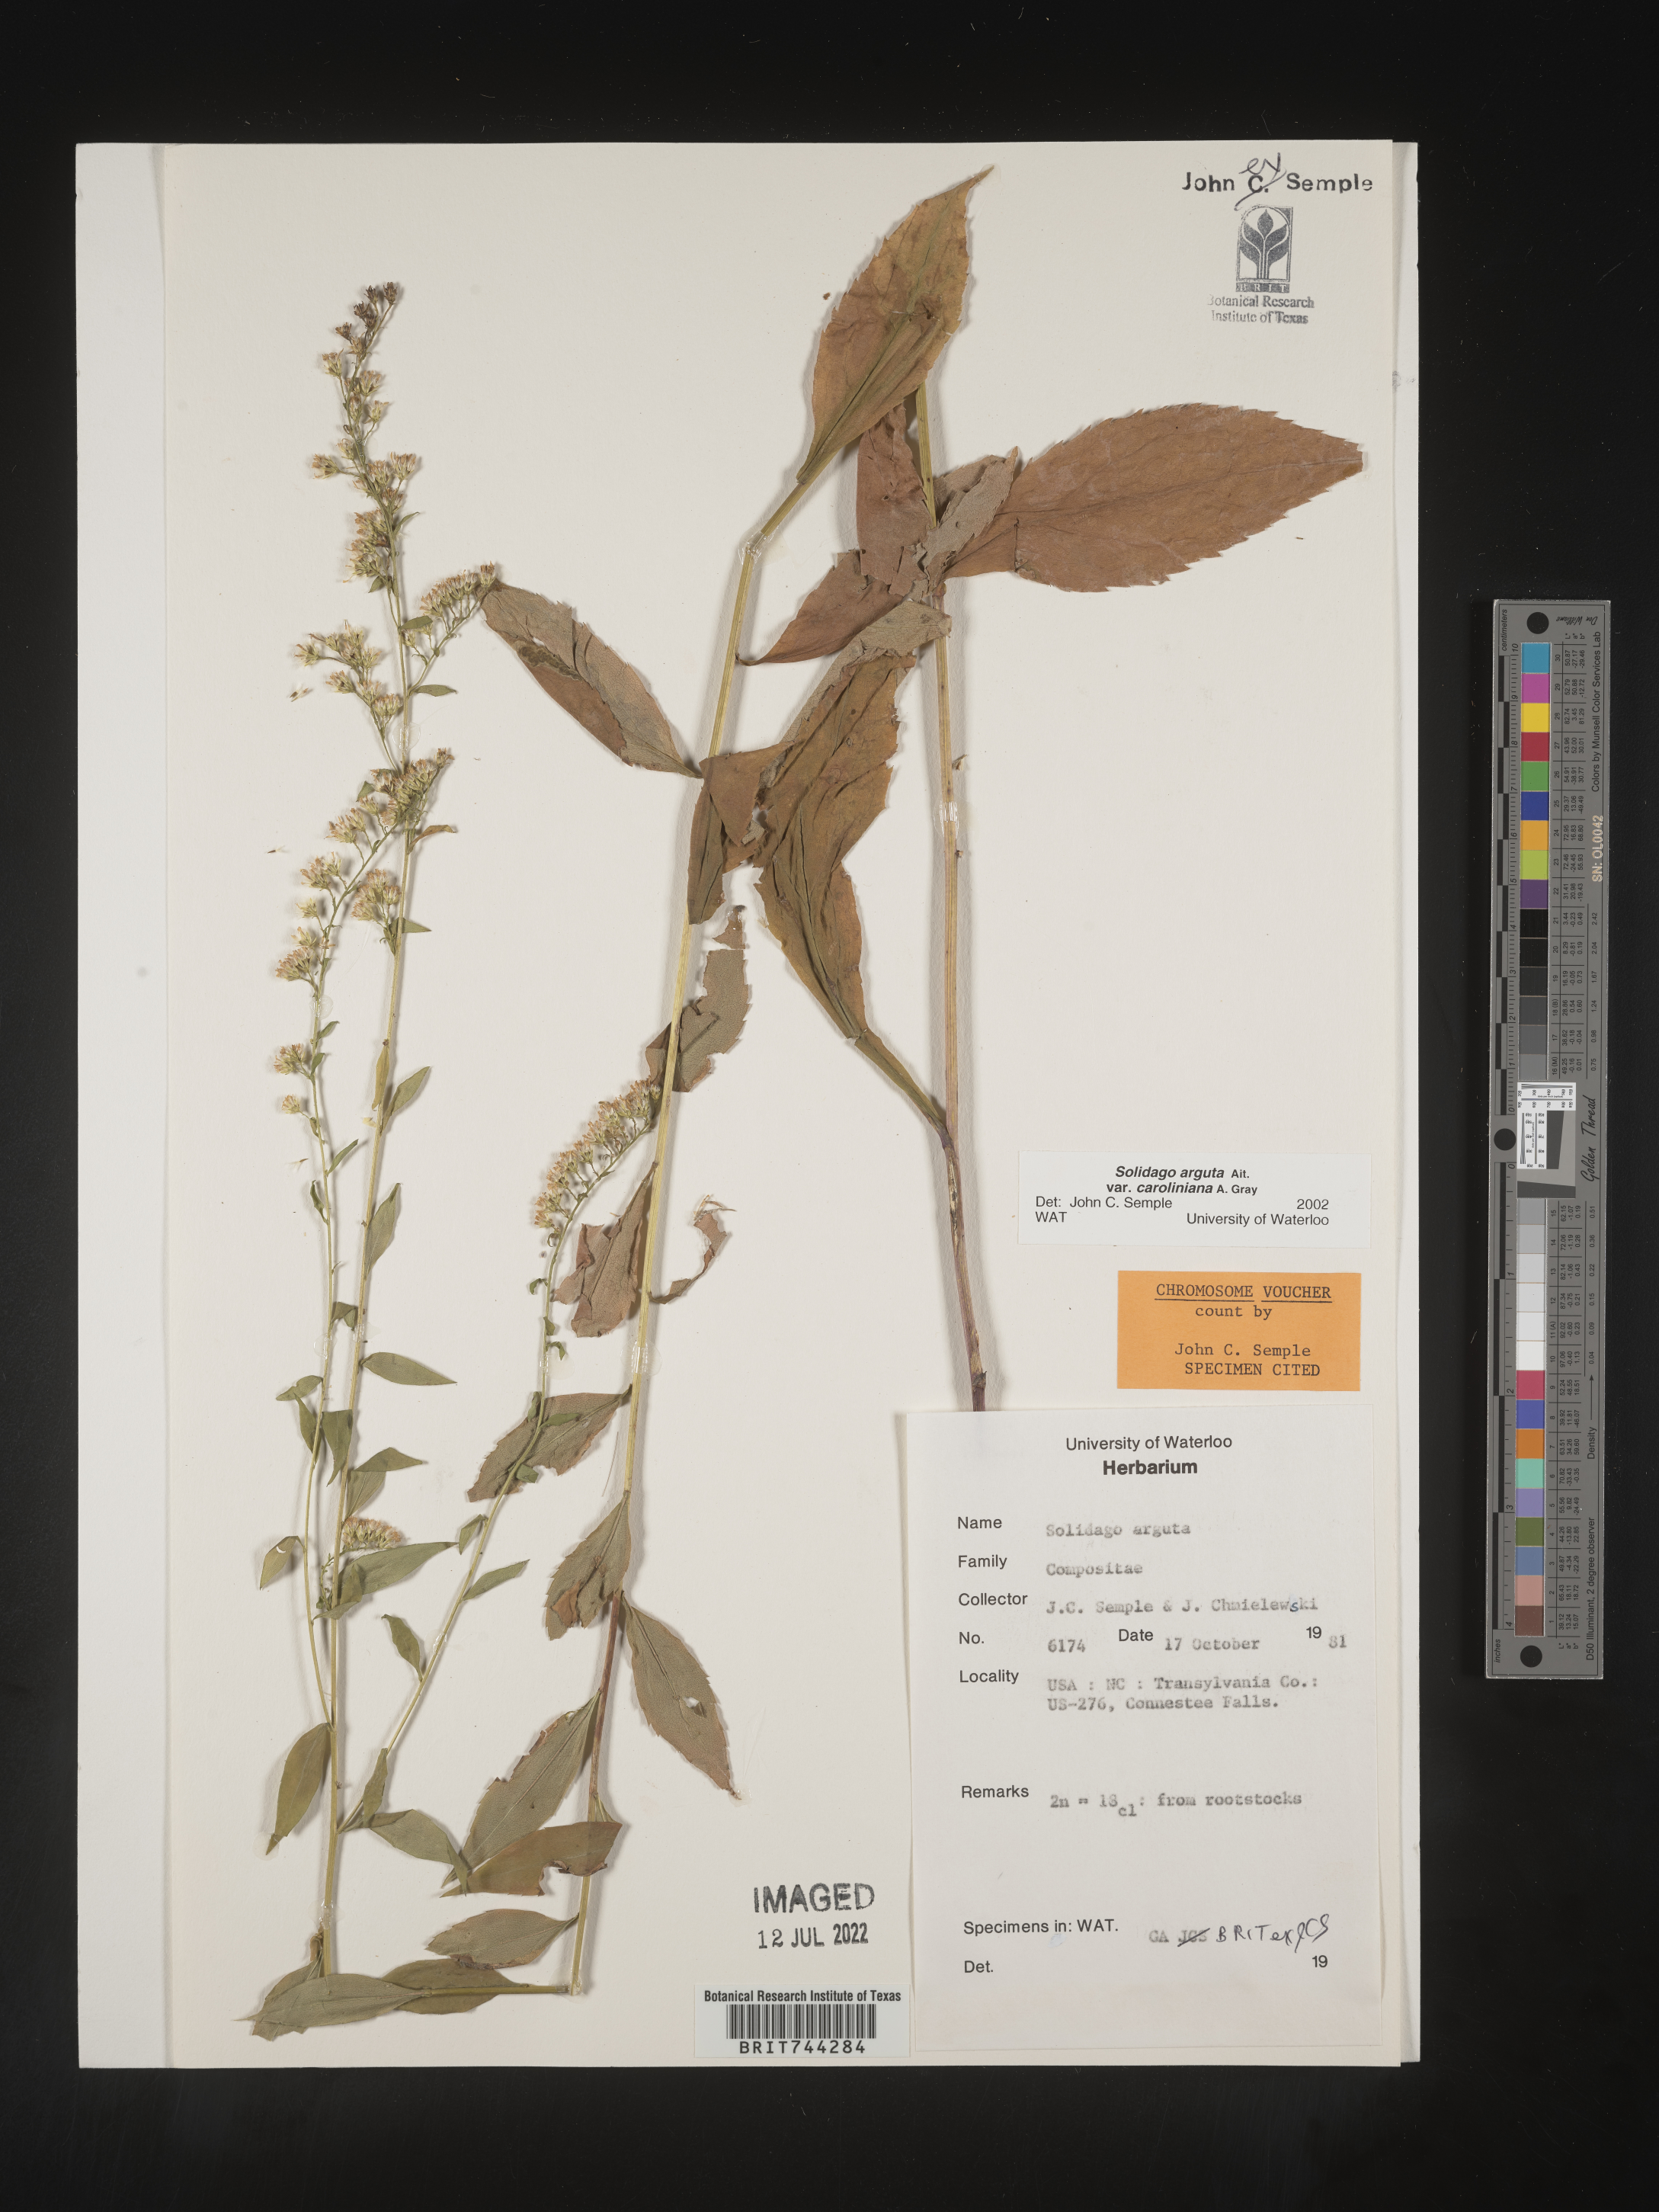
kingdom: Plantae
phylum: Tracheophyta
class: Magnoliopsida
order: Asterales
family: Asteraceae
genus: Solidago
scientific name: Solidago arguta
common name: Atlantic goldenrod
